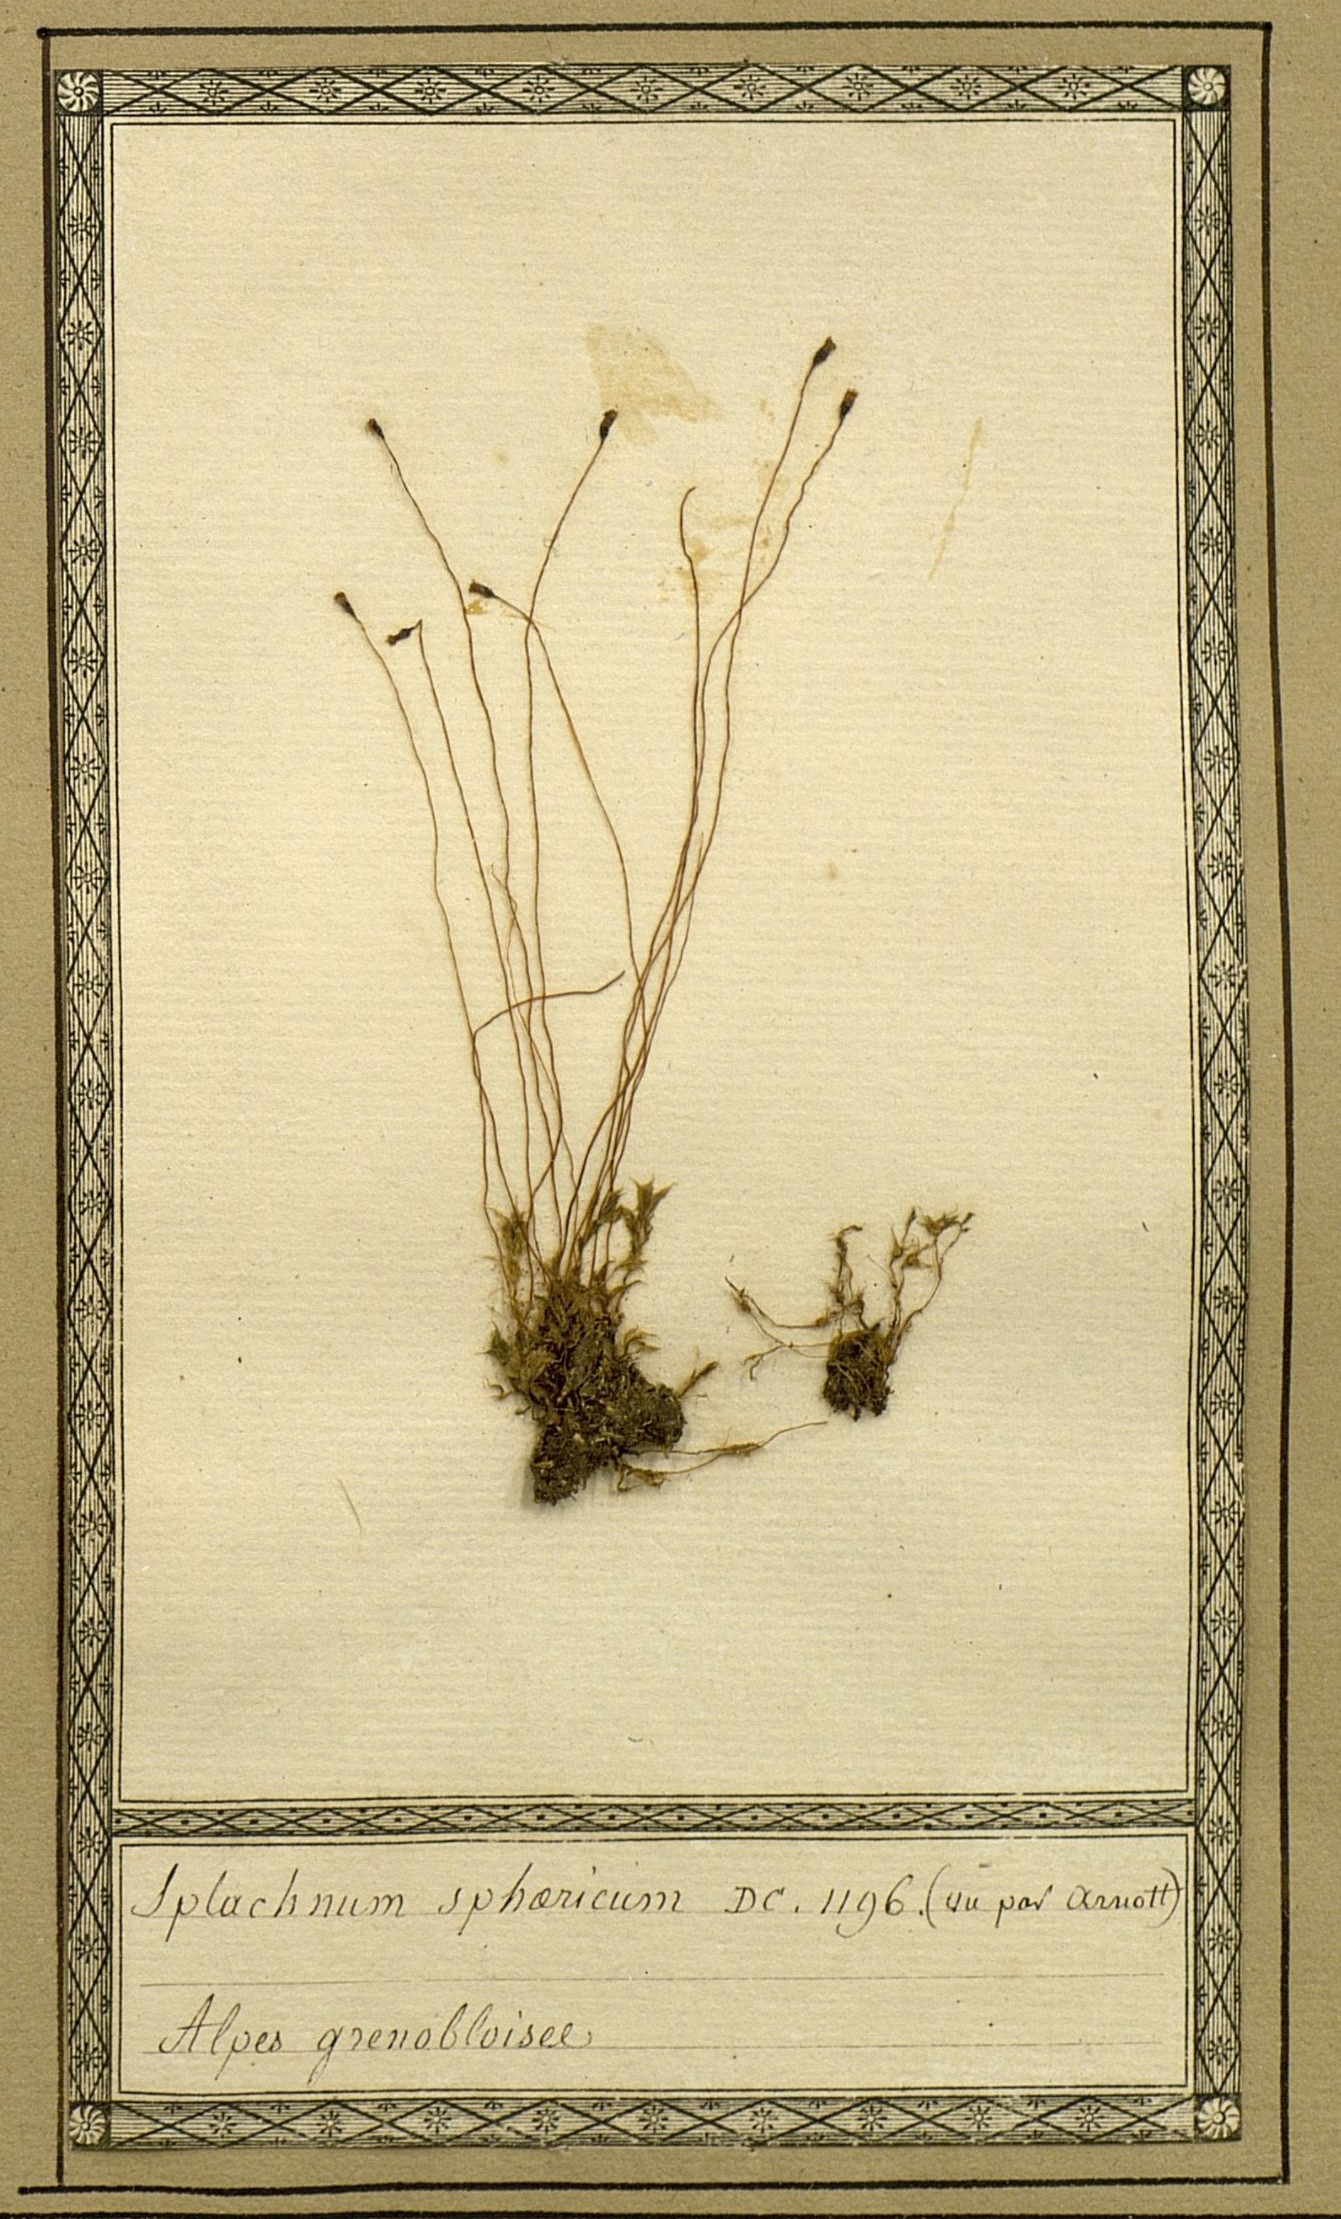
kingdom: Plantae
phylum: Bryophyta
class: Bryopsida
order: Splachnales
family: Splachnaceae
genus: Splachnum
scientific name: Splachnum sphaericum
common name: Round-fruited dung moss
